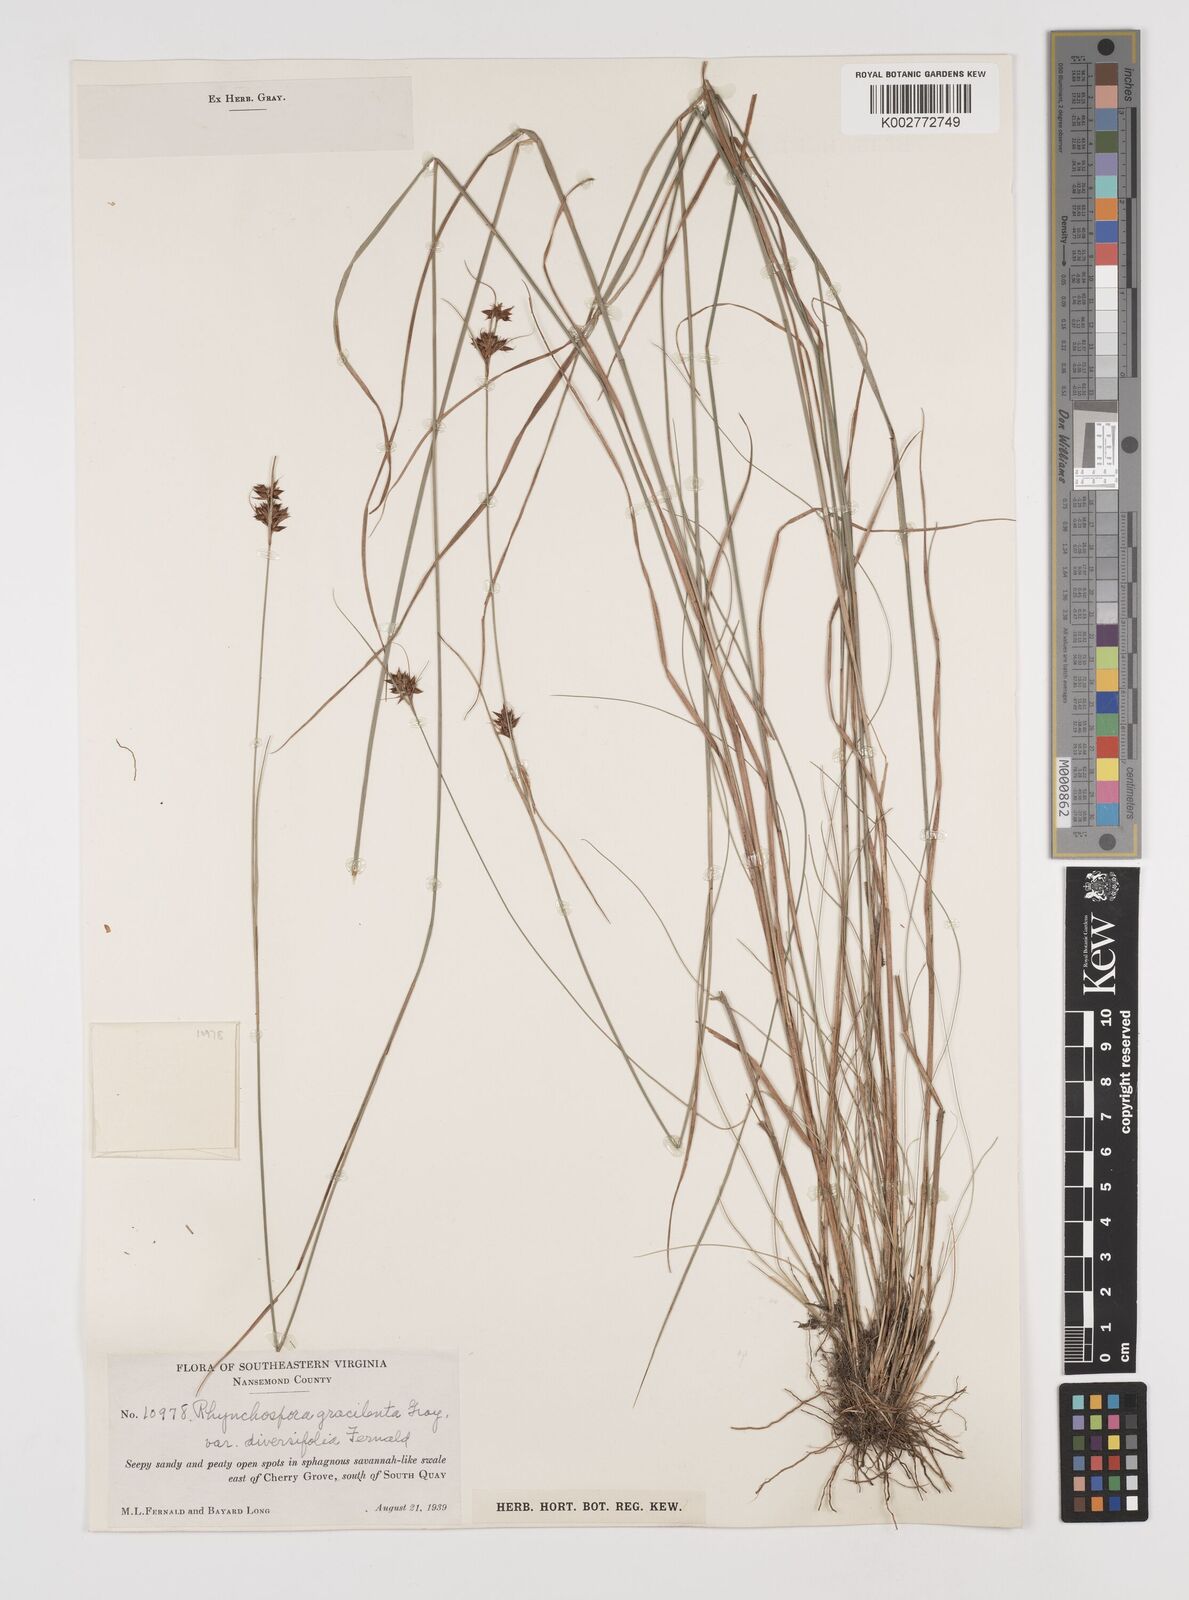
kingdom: Plantae
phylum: Tracheophyta
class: Liliopsida
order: Poales
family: Cyperaceae
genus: Rhynchospora
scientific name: Rhynchospora gracilenta
